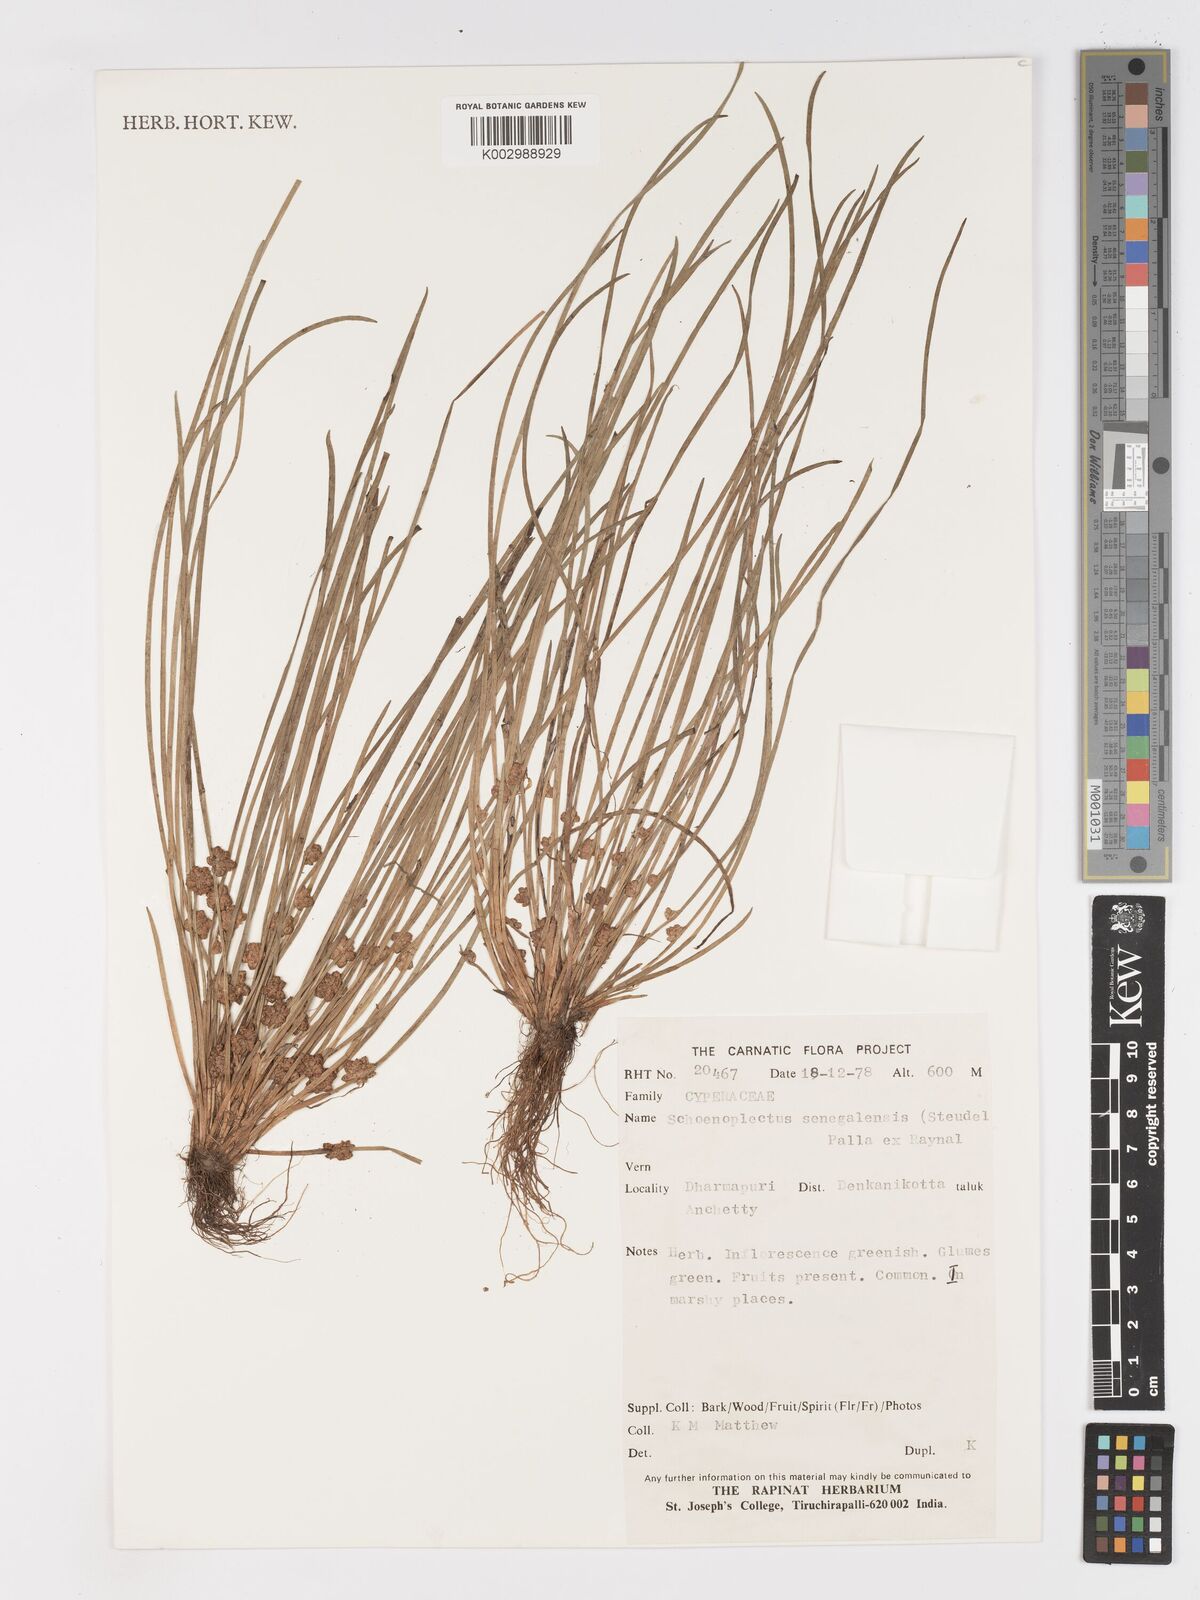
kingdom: Plantae
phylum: Tracheophyta
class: Liliopsida
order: Poales
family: Cyperaceae
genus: Schoenoplectiella
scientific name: Schoenoplectiella senegalensis
